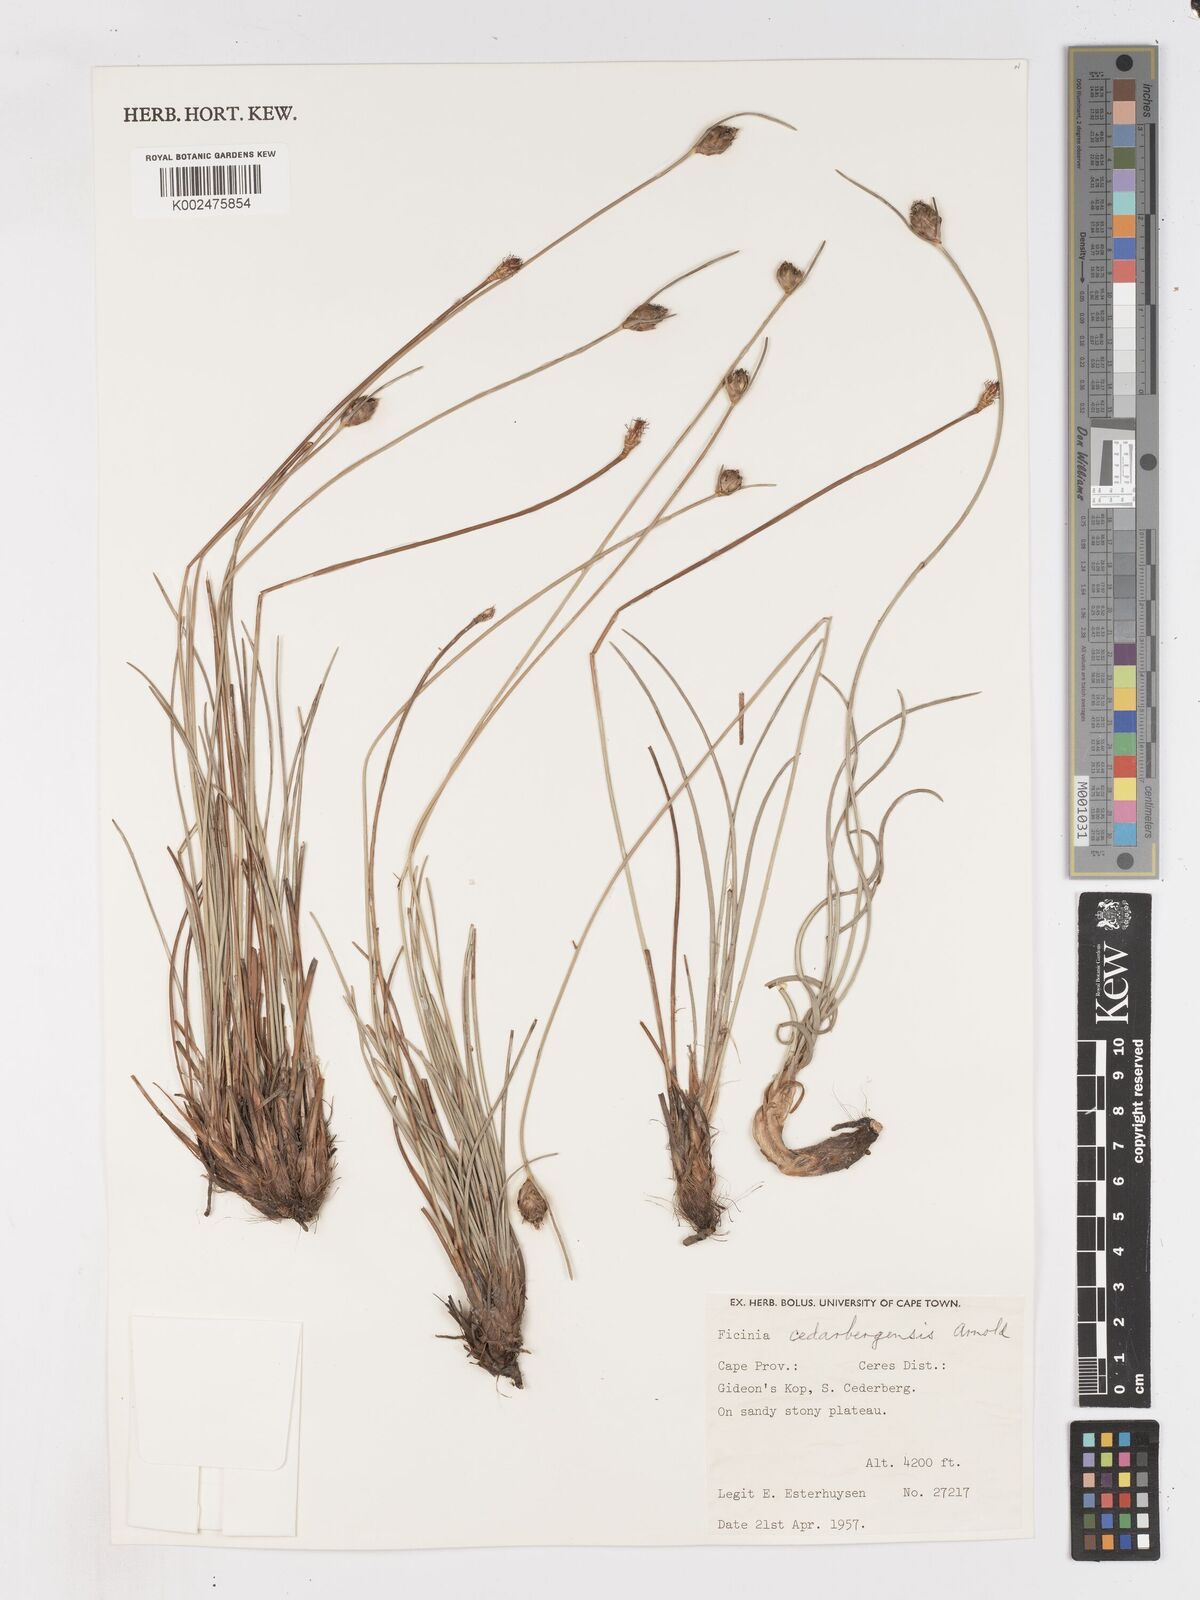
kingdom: Plantae
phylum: Tracheophyta
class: Liliopsida
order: Poales
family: Cyperaceae
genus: Ficinia
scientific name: Ficinia cedarbergensis
